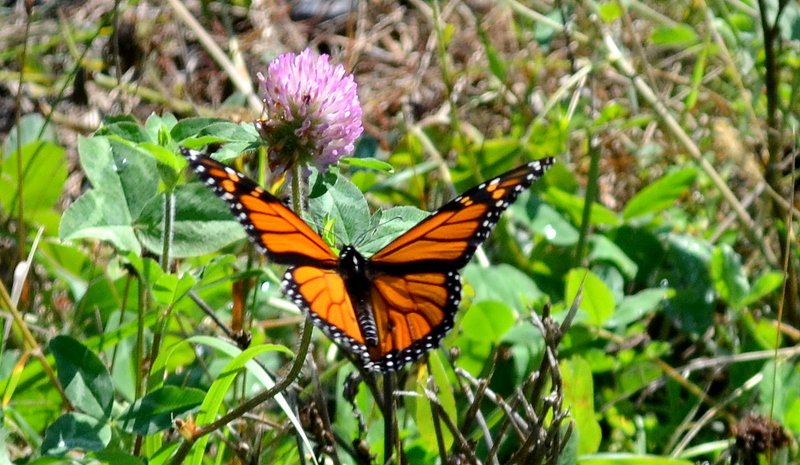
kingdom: Animalia
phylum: Arthropoda
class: Insecta
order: Lepidoptera
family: Nymphalidae
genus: Danaus
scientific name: Danaus plexippus
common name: Monarch
